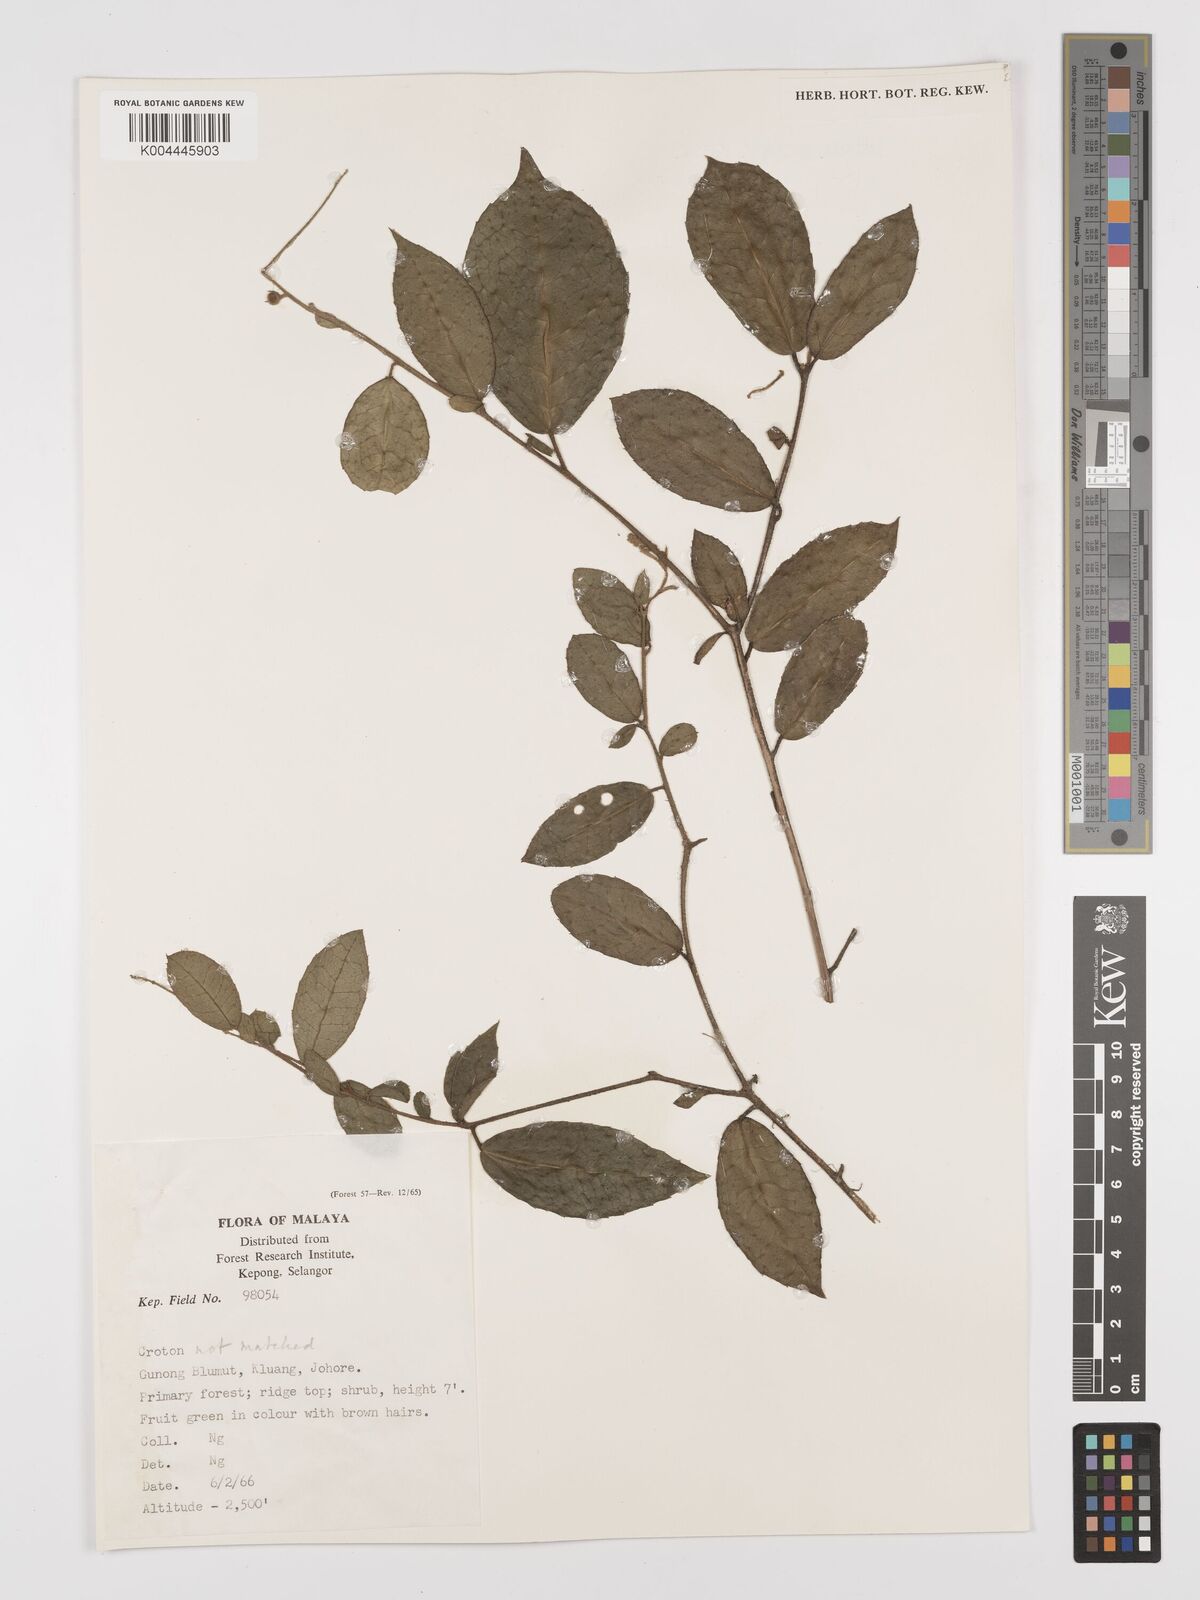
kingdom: Plantae
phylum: Tracheophyta
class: Magnoliopsida
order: Malpighiales
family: Euphorbiaceae
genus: Croton
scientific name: Croton erythrostachys
